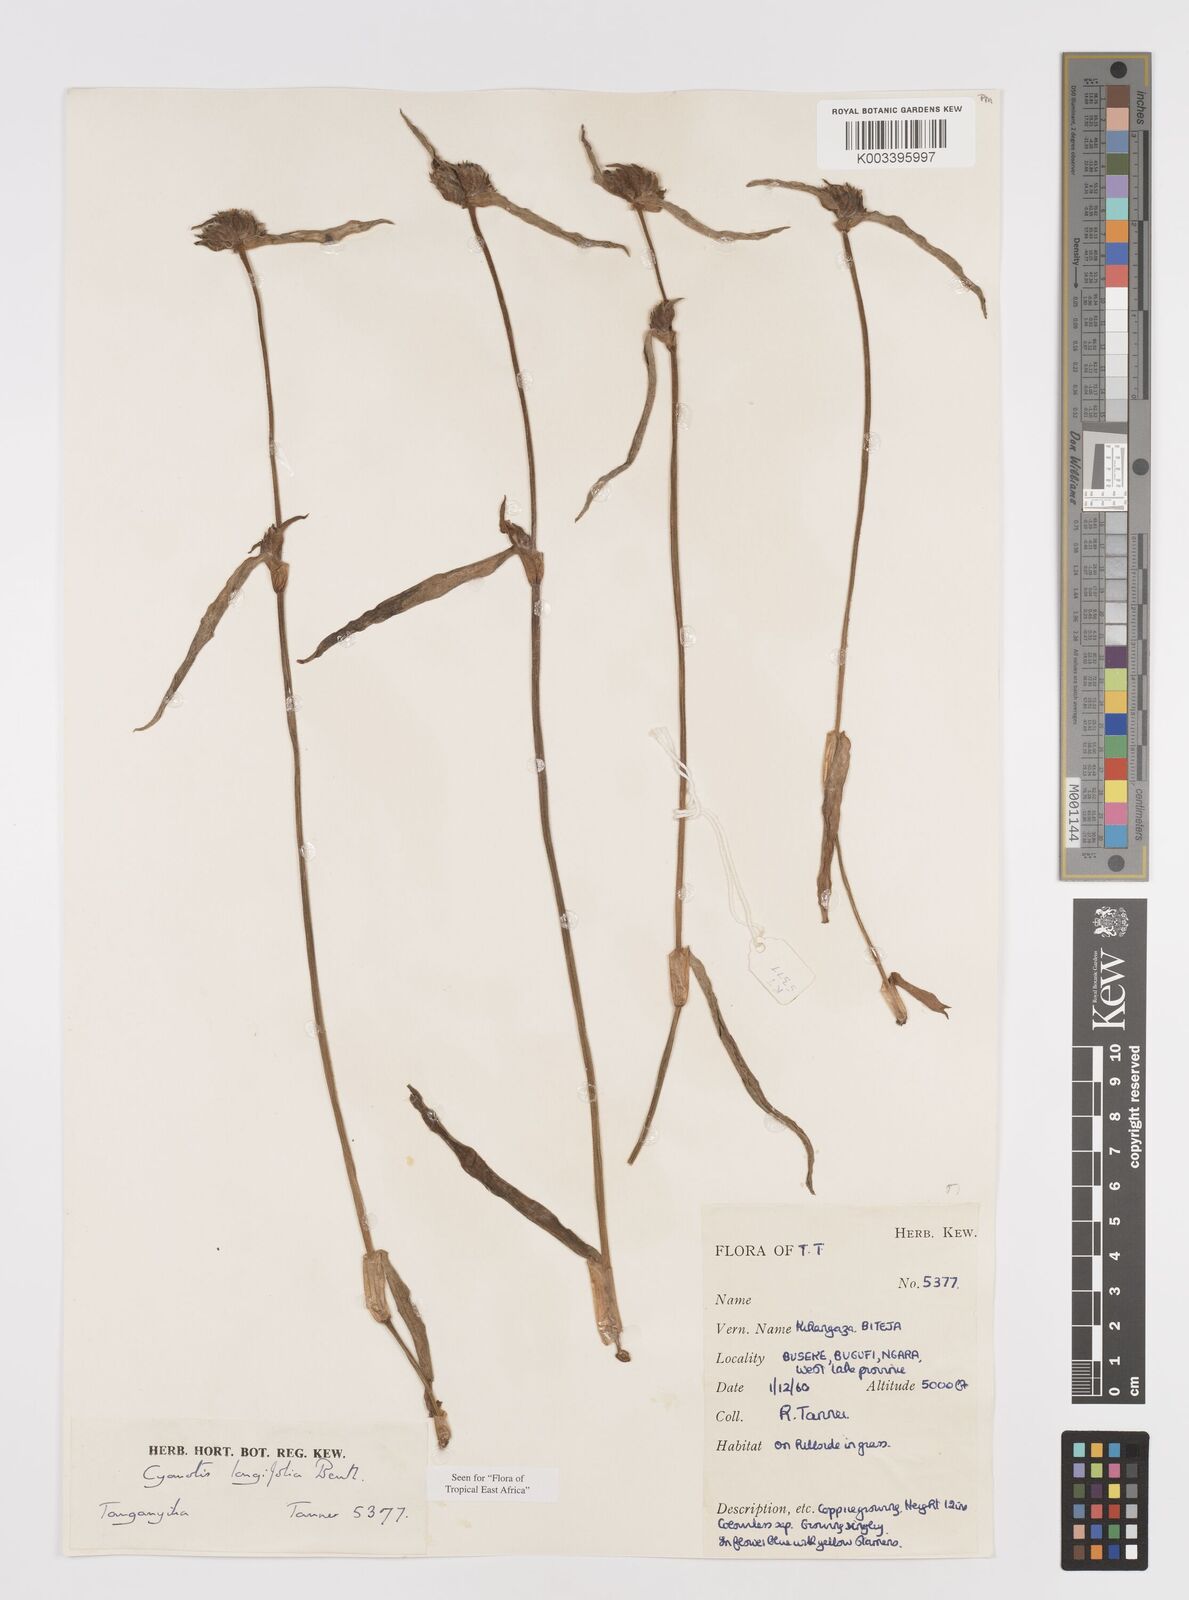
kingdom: Plantae
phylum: Tracheophyta
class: Liliopsida
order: Commelinales
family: Commelinaceae
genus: Cyanotis
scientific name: Cyanotis longifolia
